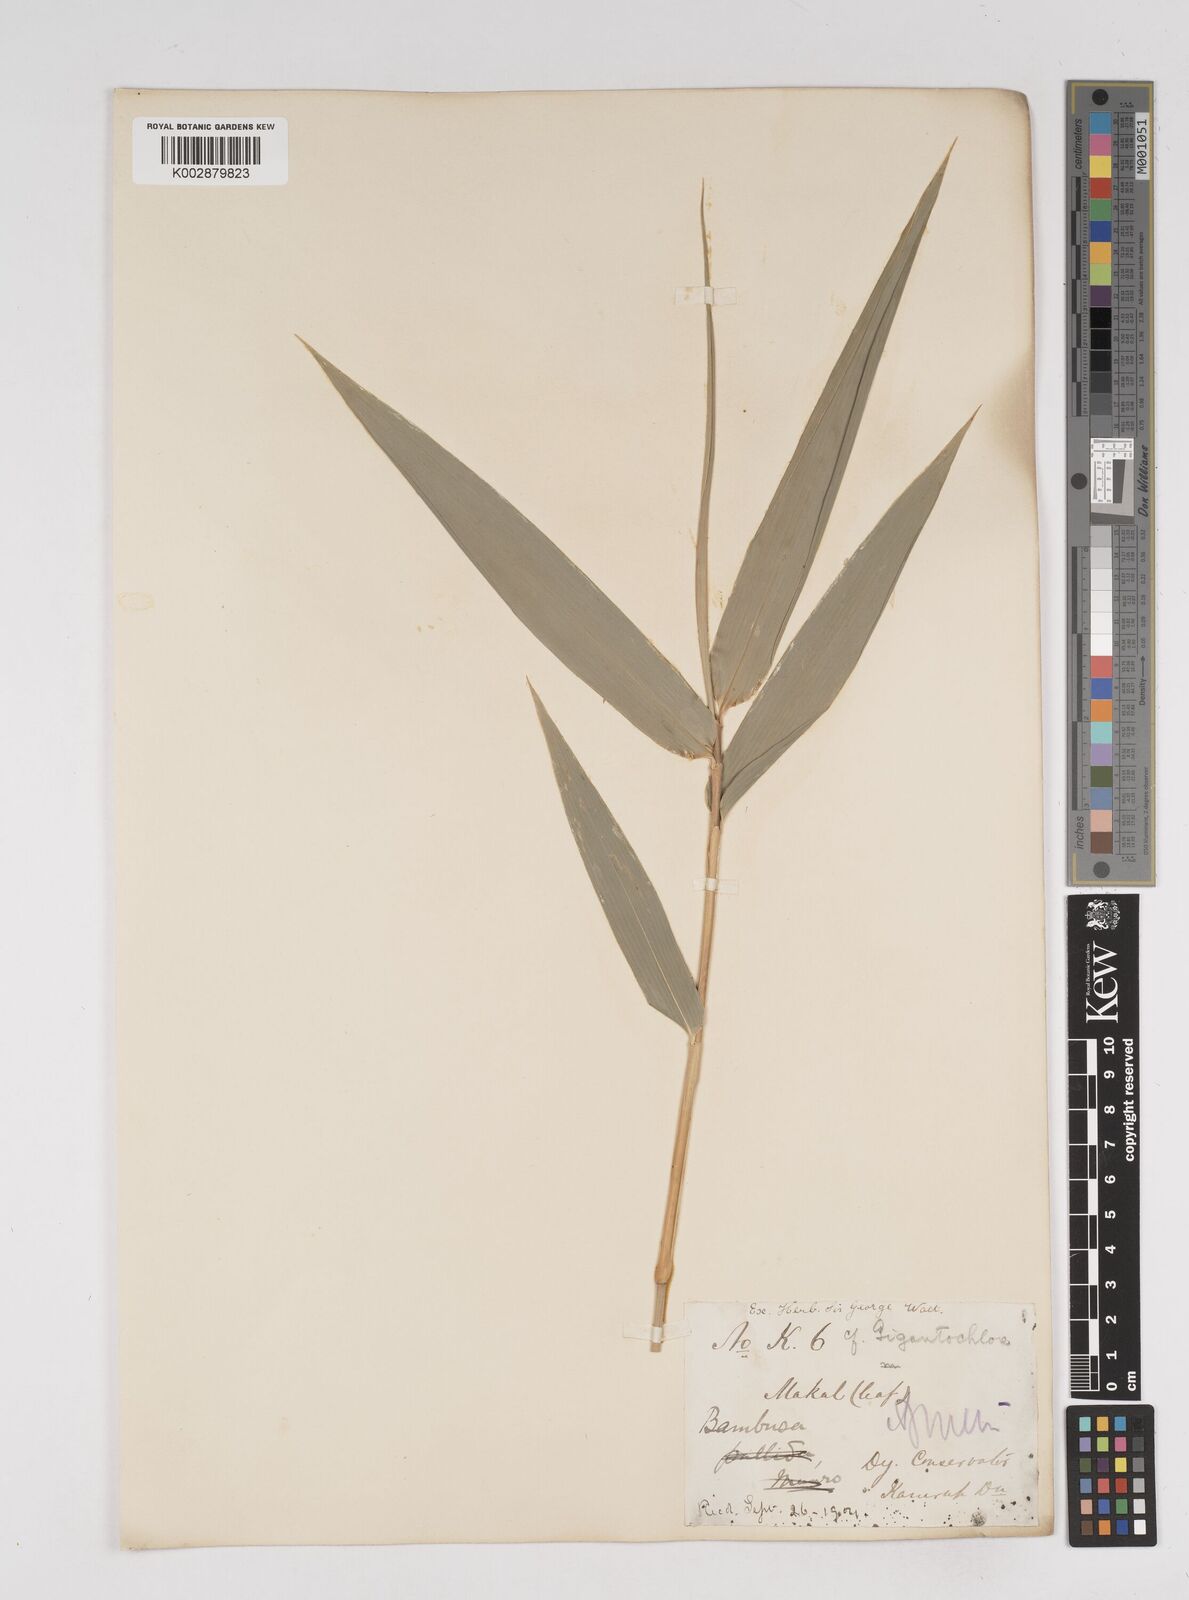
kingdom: Plantae
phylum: Tracheophyta
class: Liliopsida
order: Poales
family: Poaceae
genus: Gigantochloa
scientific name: Gigantochloa
